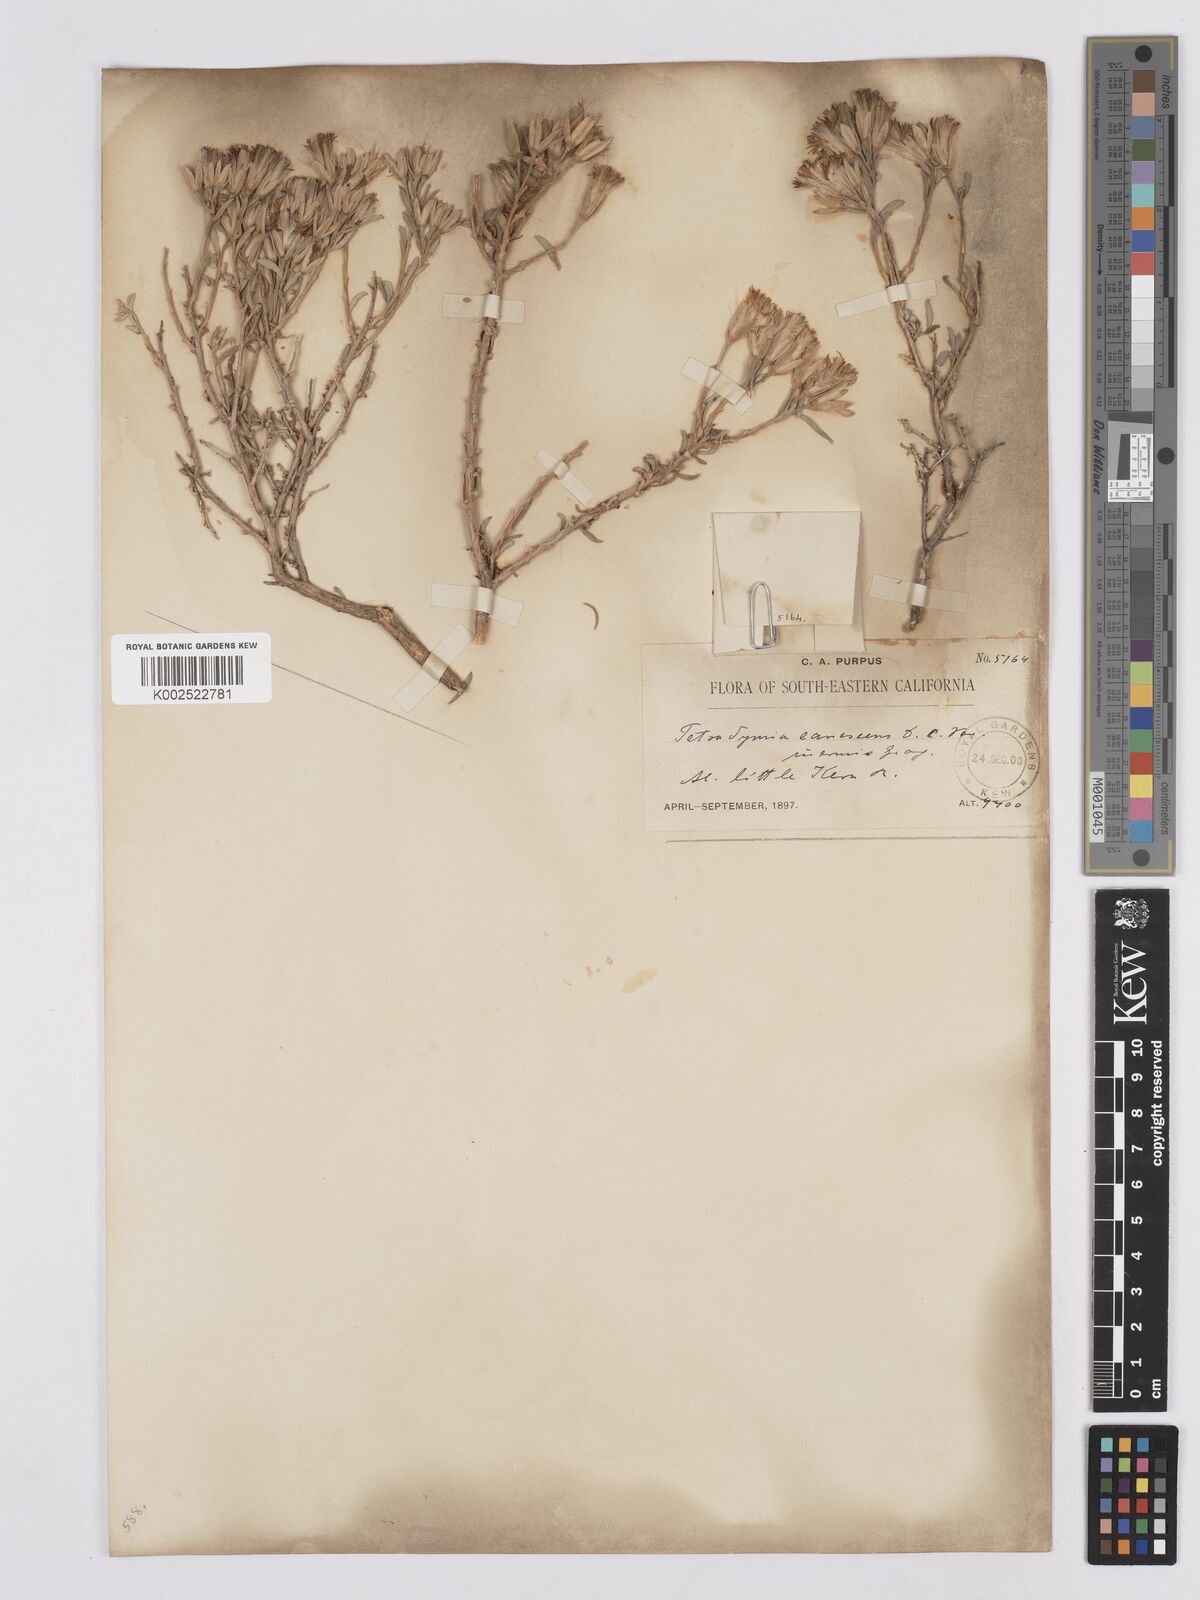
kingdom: Plantae
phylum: Tracheophyta
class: Magnoliopsida
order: Asterales
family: Asteraceae
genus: Tetradymia
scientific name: Tetradymia canescens
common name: Spineless horsebrush
